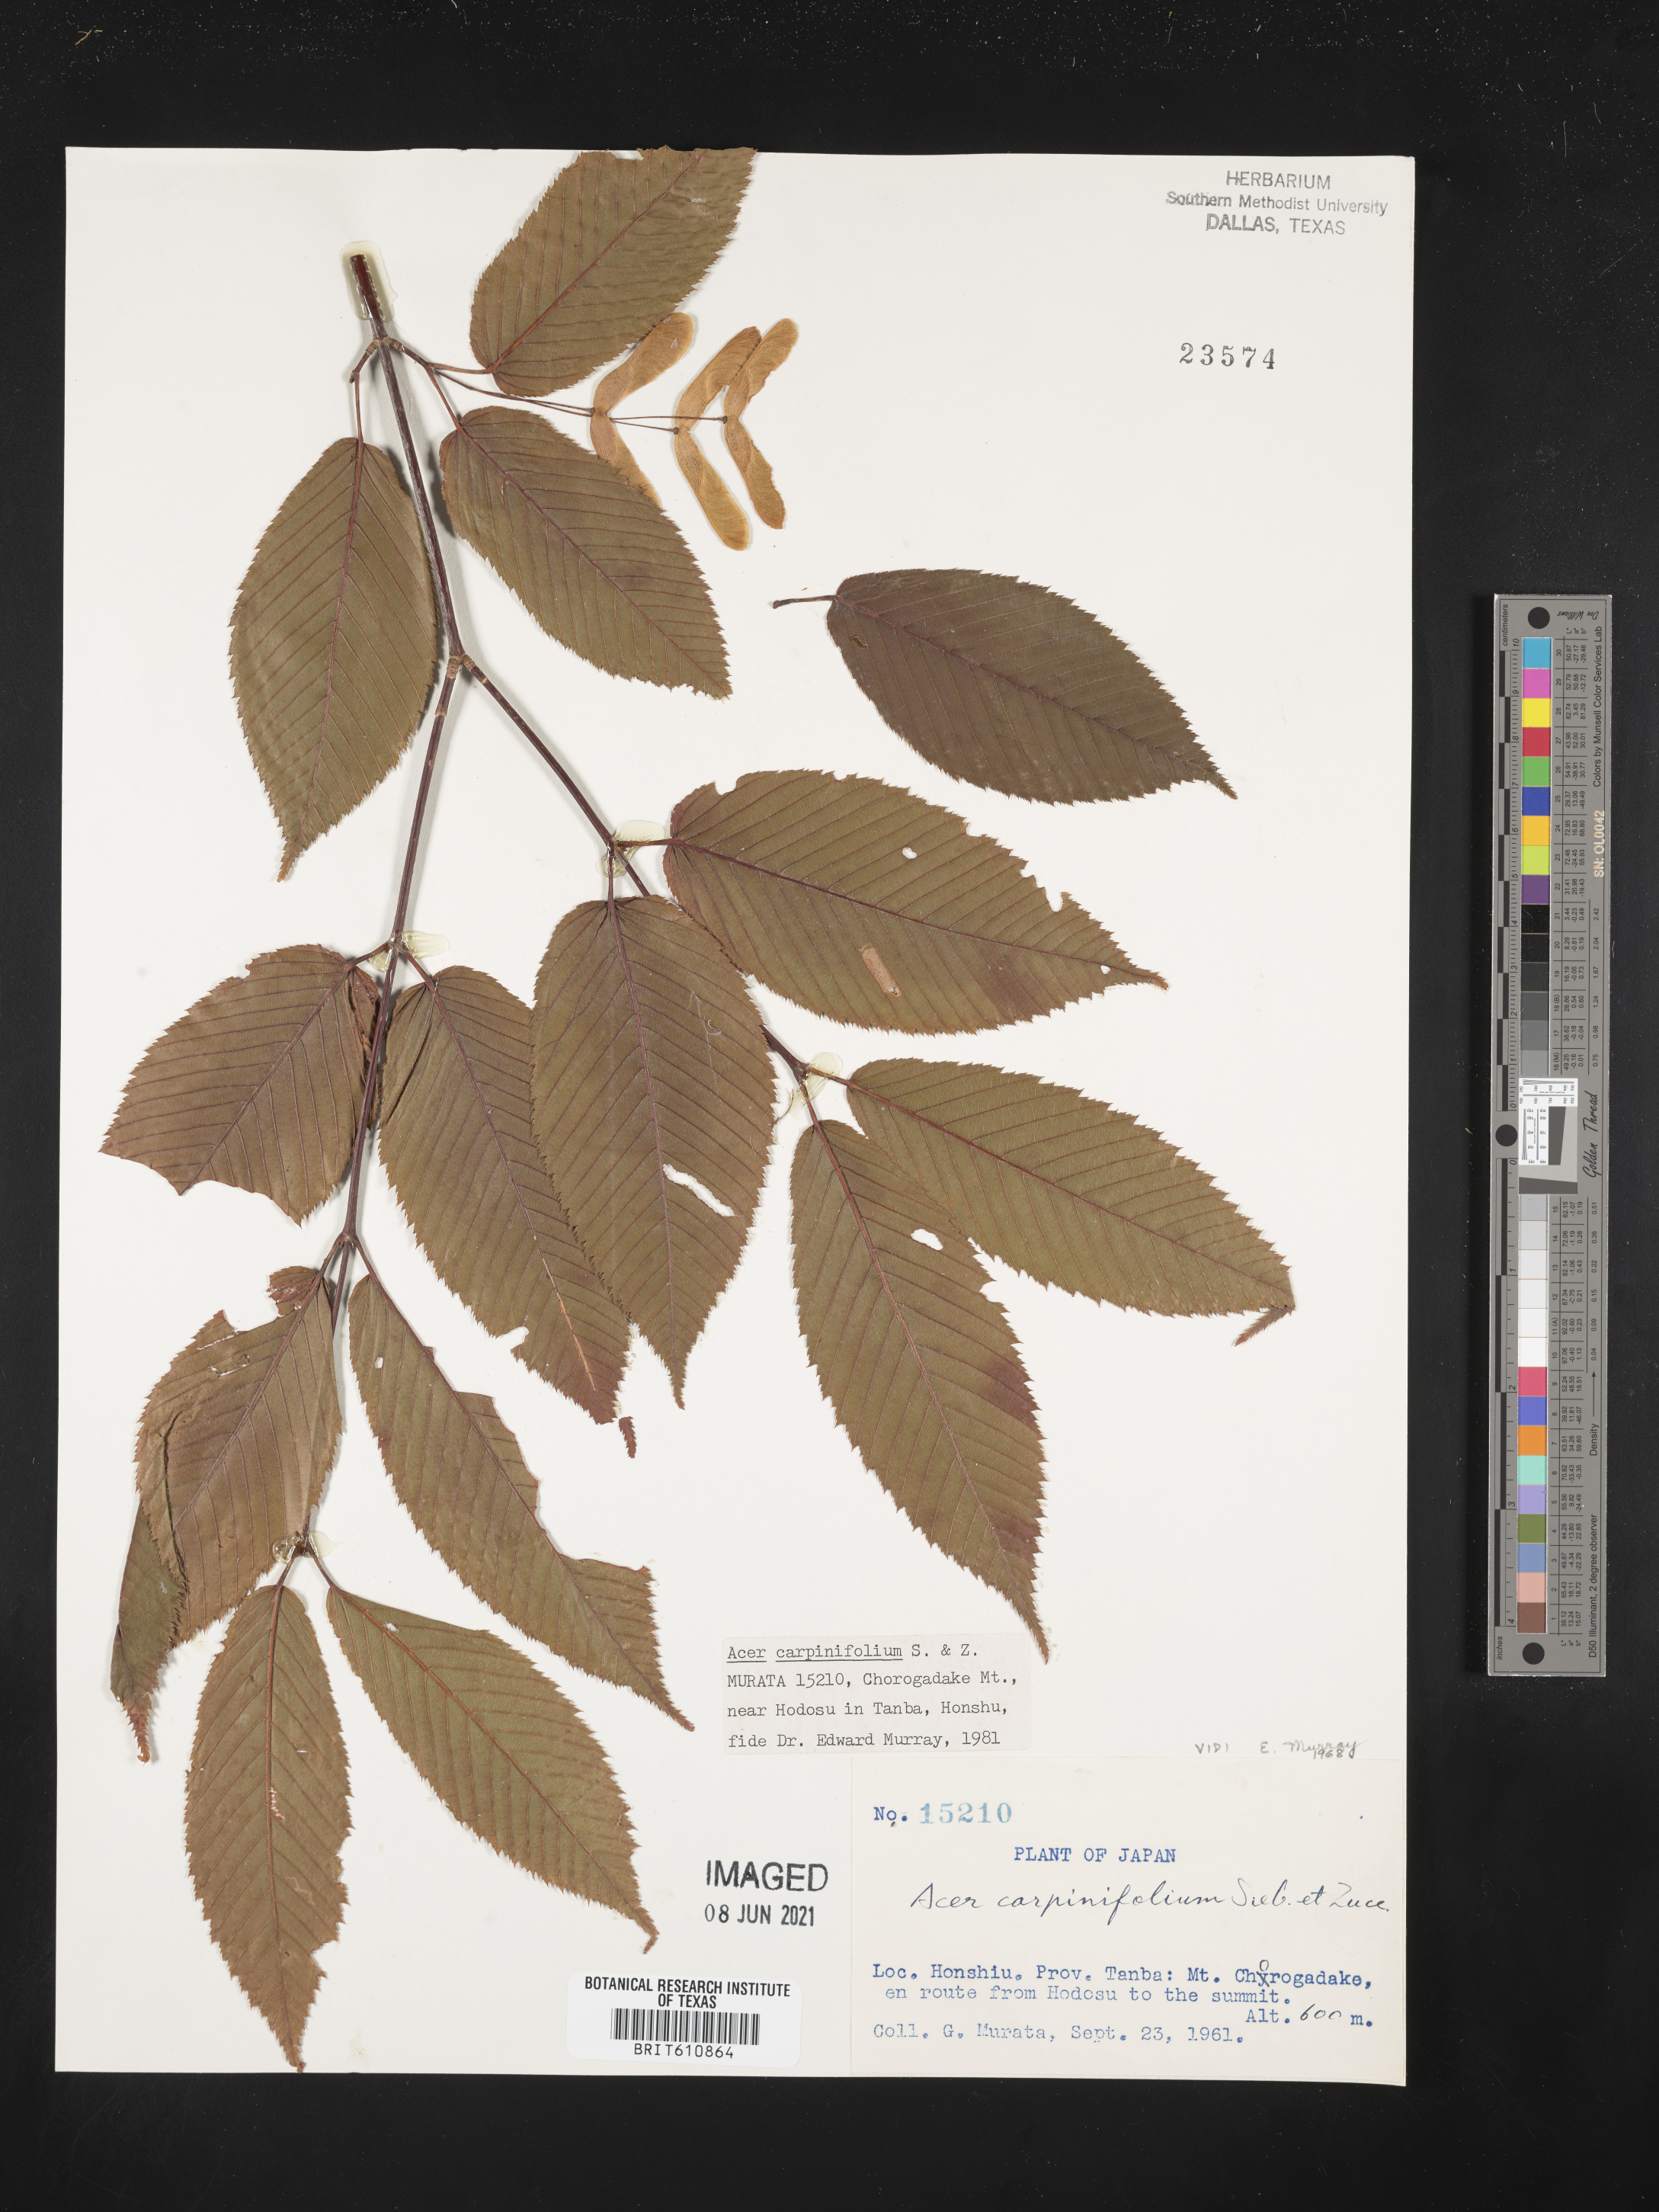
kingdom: Plantae
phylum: Tracheophyta
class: Magnoliopsida
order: Sapindales
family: Sapindaceae
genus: Acer
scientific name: Acer carpinifolium
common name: Hornbeam maple
